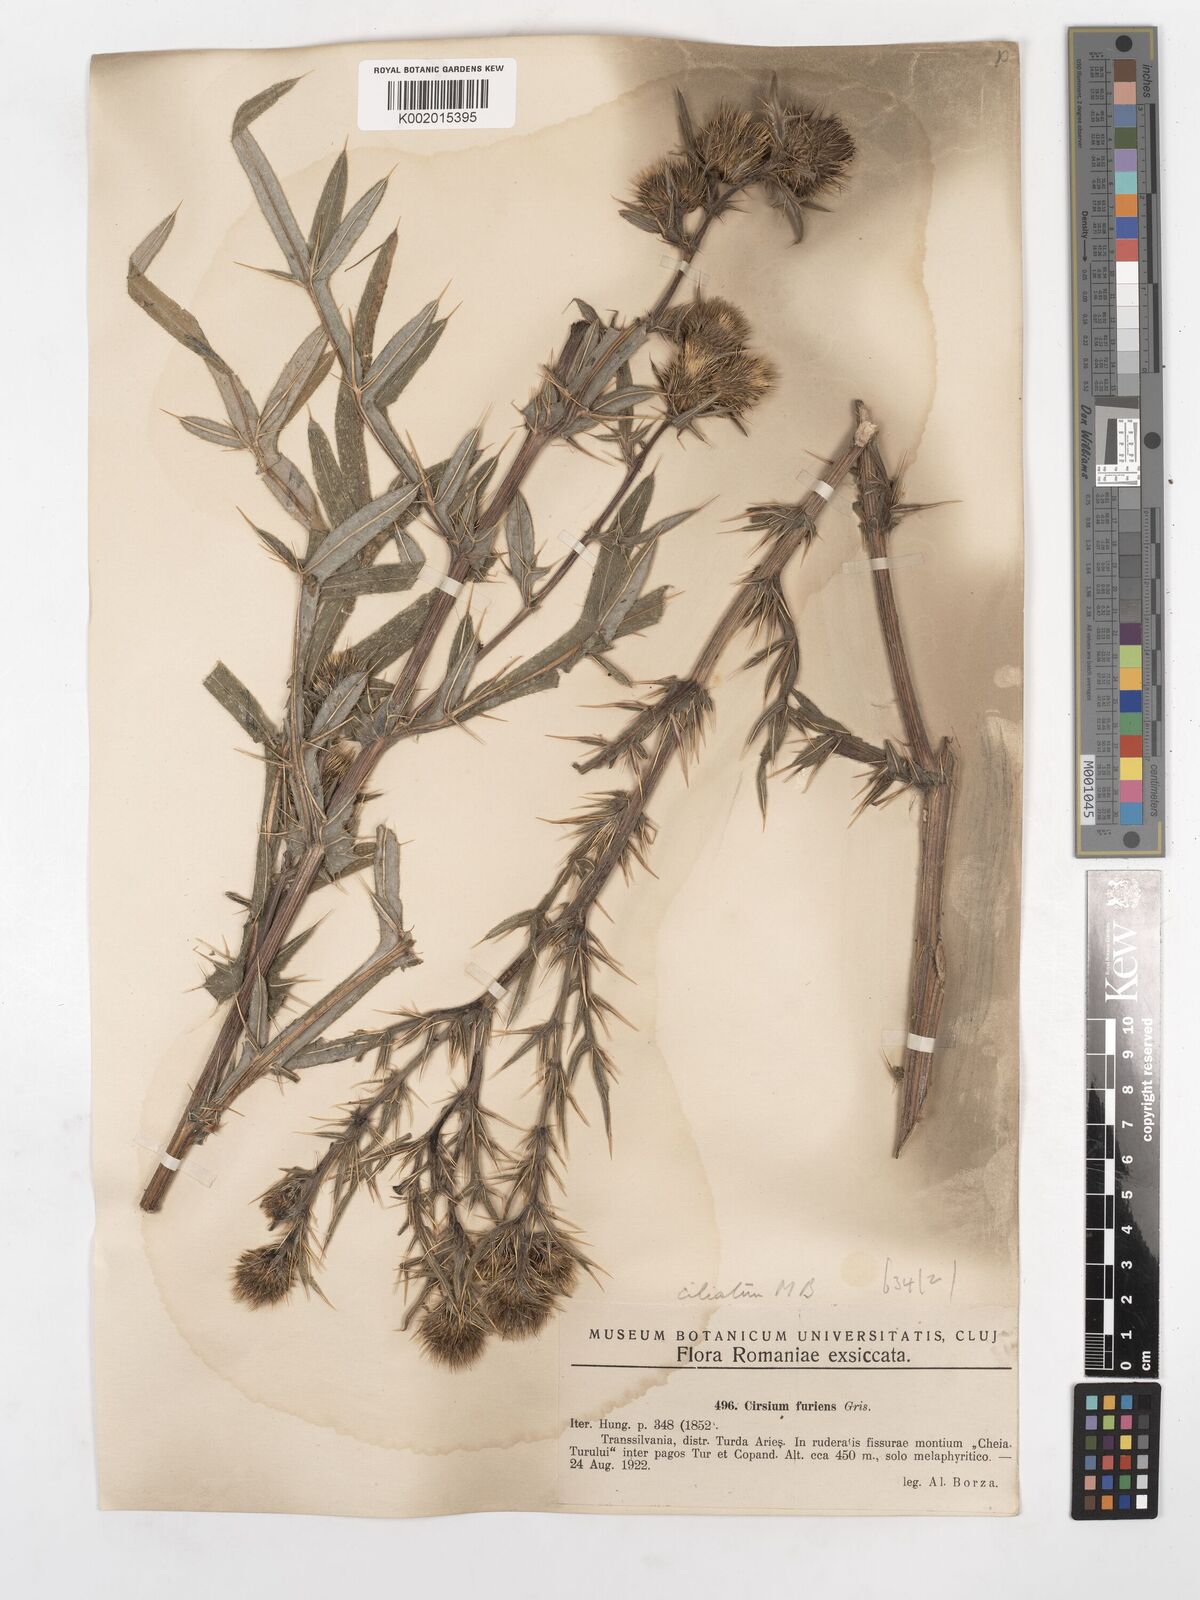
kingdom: Plantae
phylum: Tracheophyta
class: Magnoliopsida
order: Asterales
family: Asteraceae
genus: Cirsium
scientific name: Cirsium
